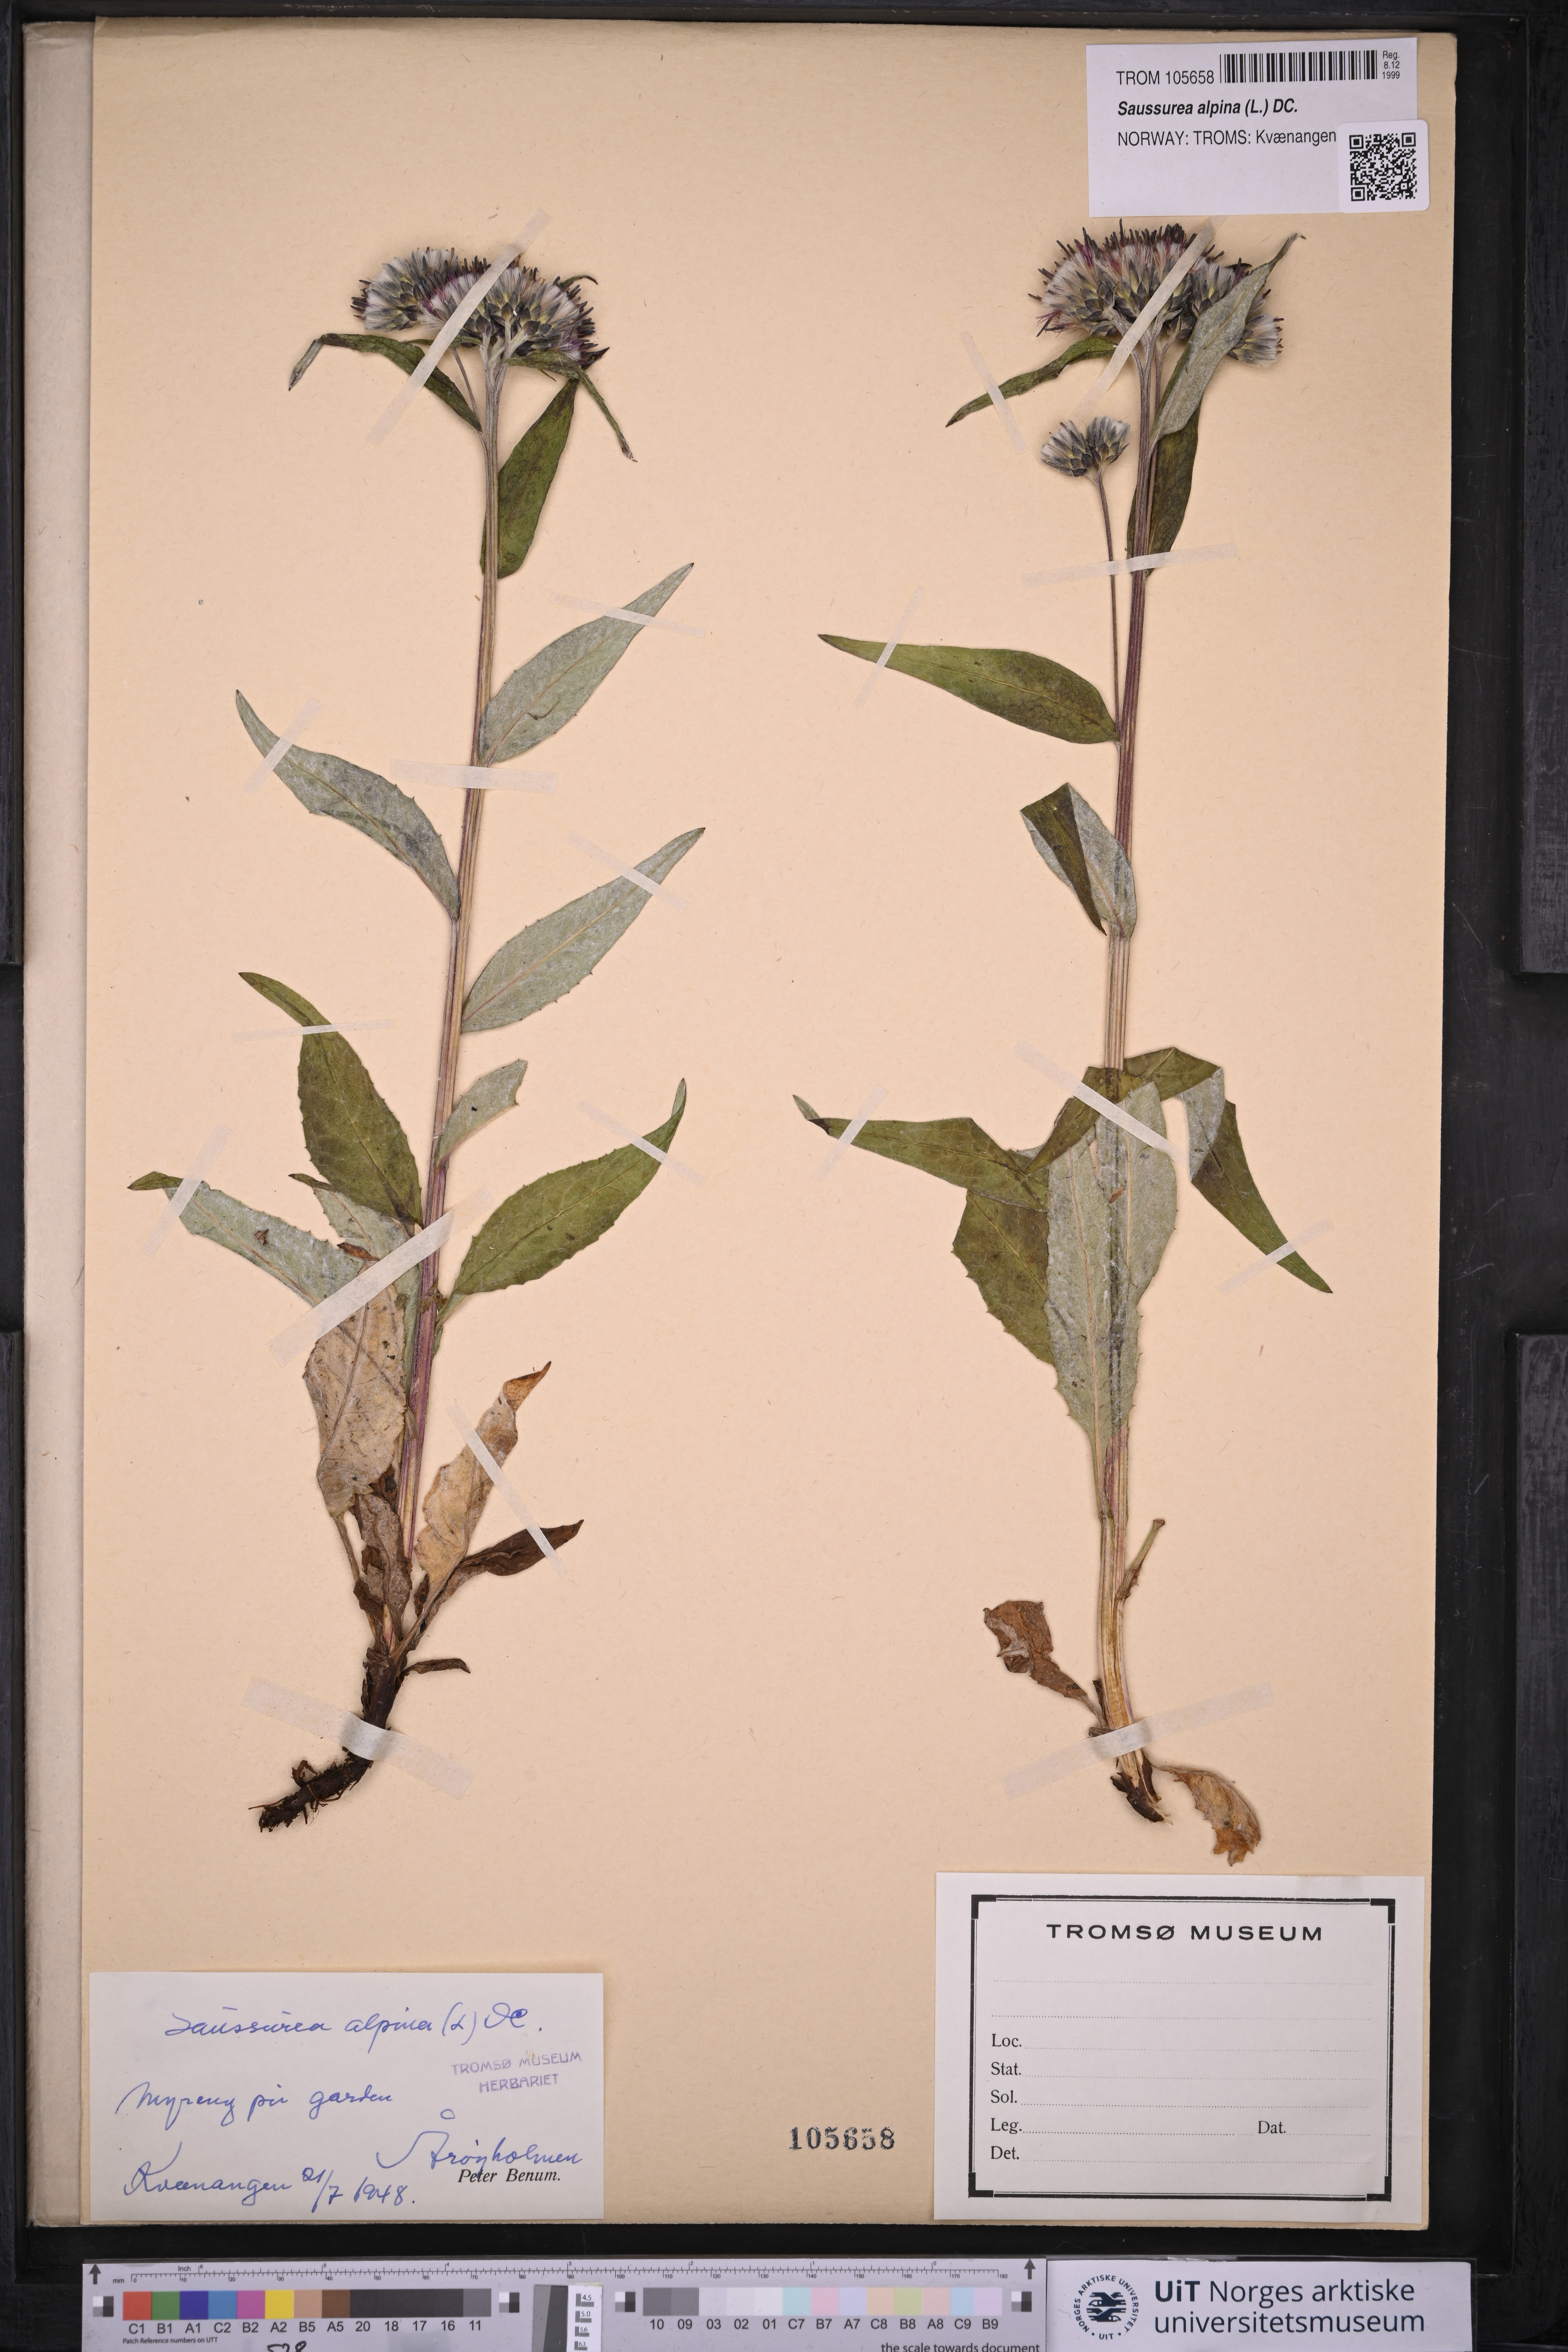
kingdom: Plantae
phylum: Tracheophyta
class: Magnoliopsida
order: Asterales
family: Asteraceae
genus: Saussurea
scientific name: Saussurea alpina
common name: Alpine saw-wort
